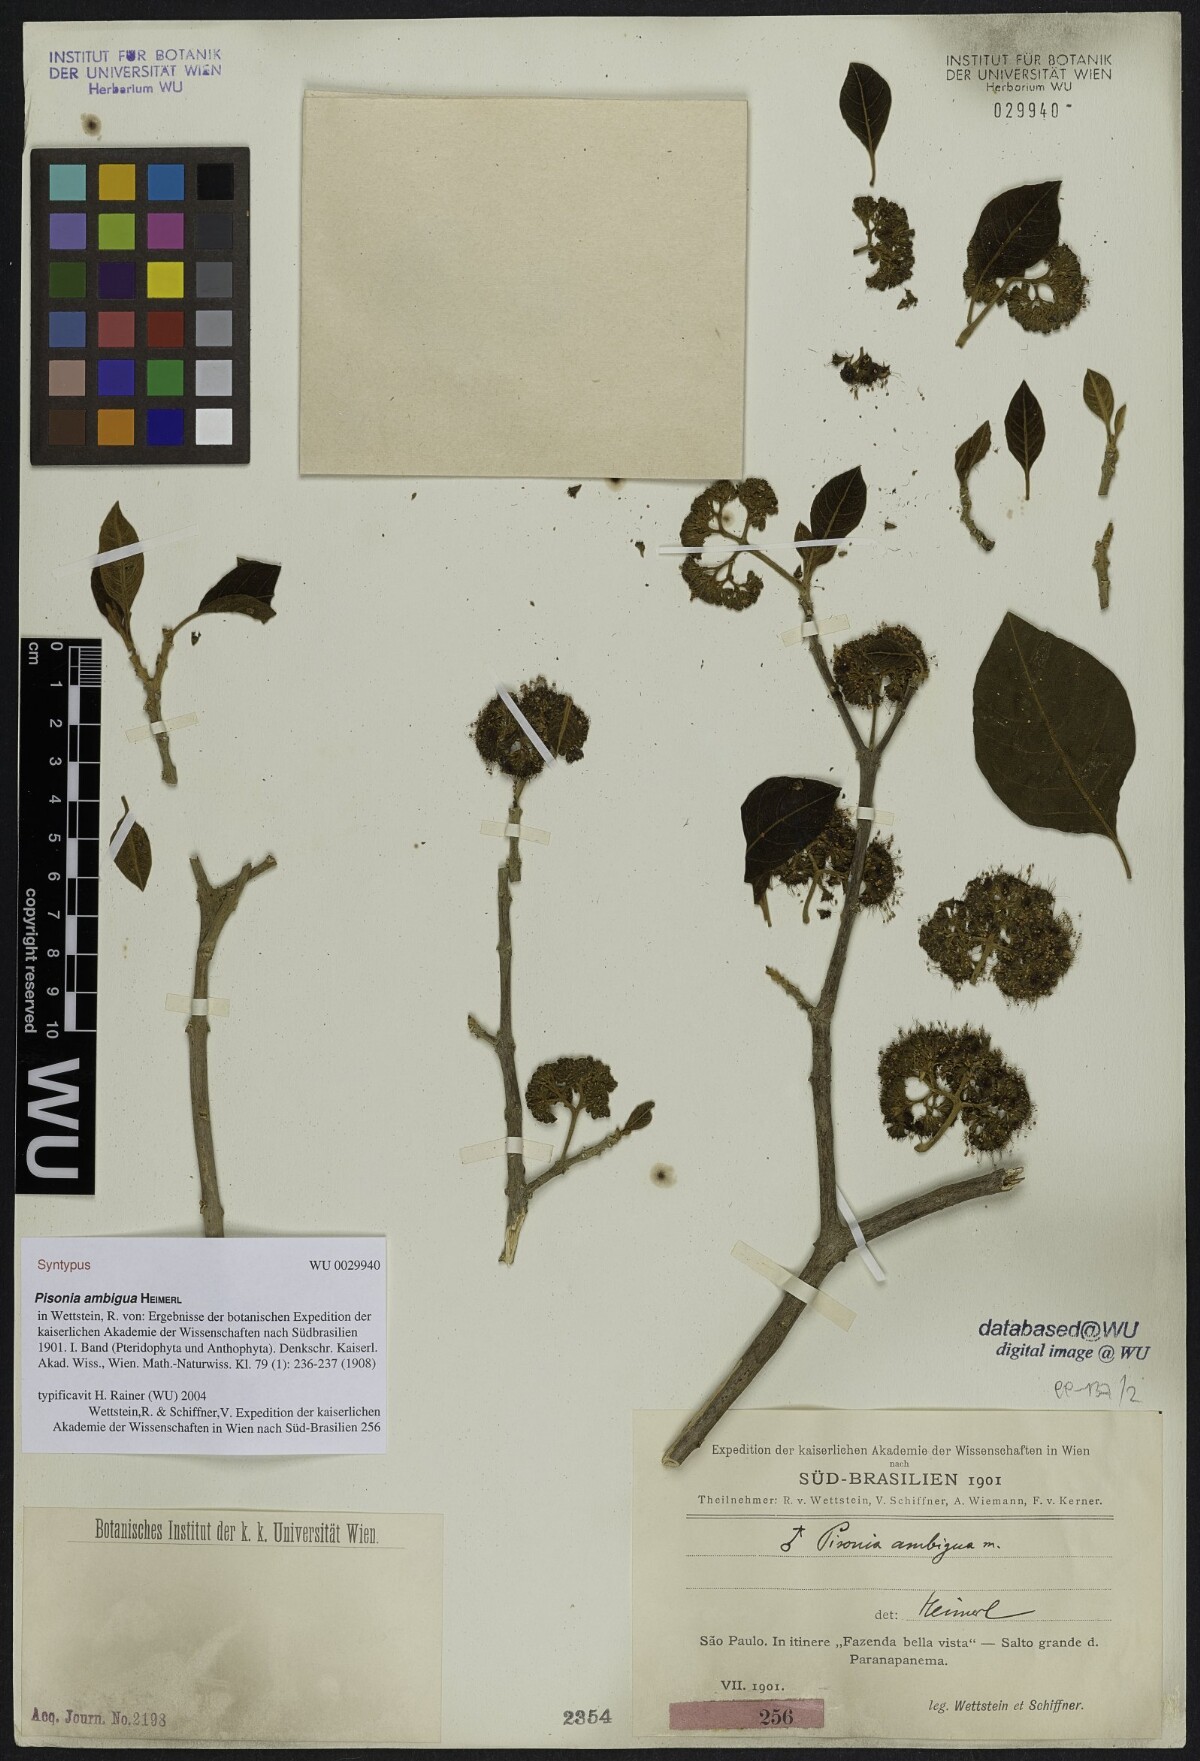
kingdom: Plantae
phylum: Tracheophyta
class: Magnoliopsida
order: Caryophyllales
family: Nyctaginaceae
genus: Pisonia
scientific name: Pisonia ambigua
